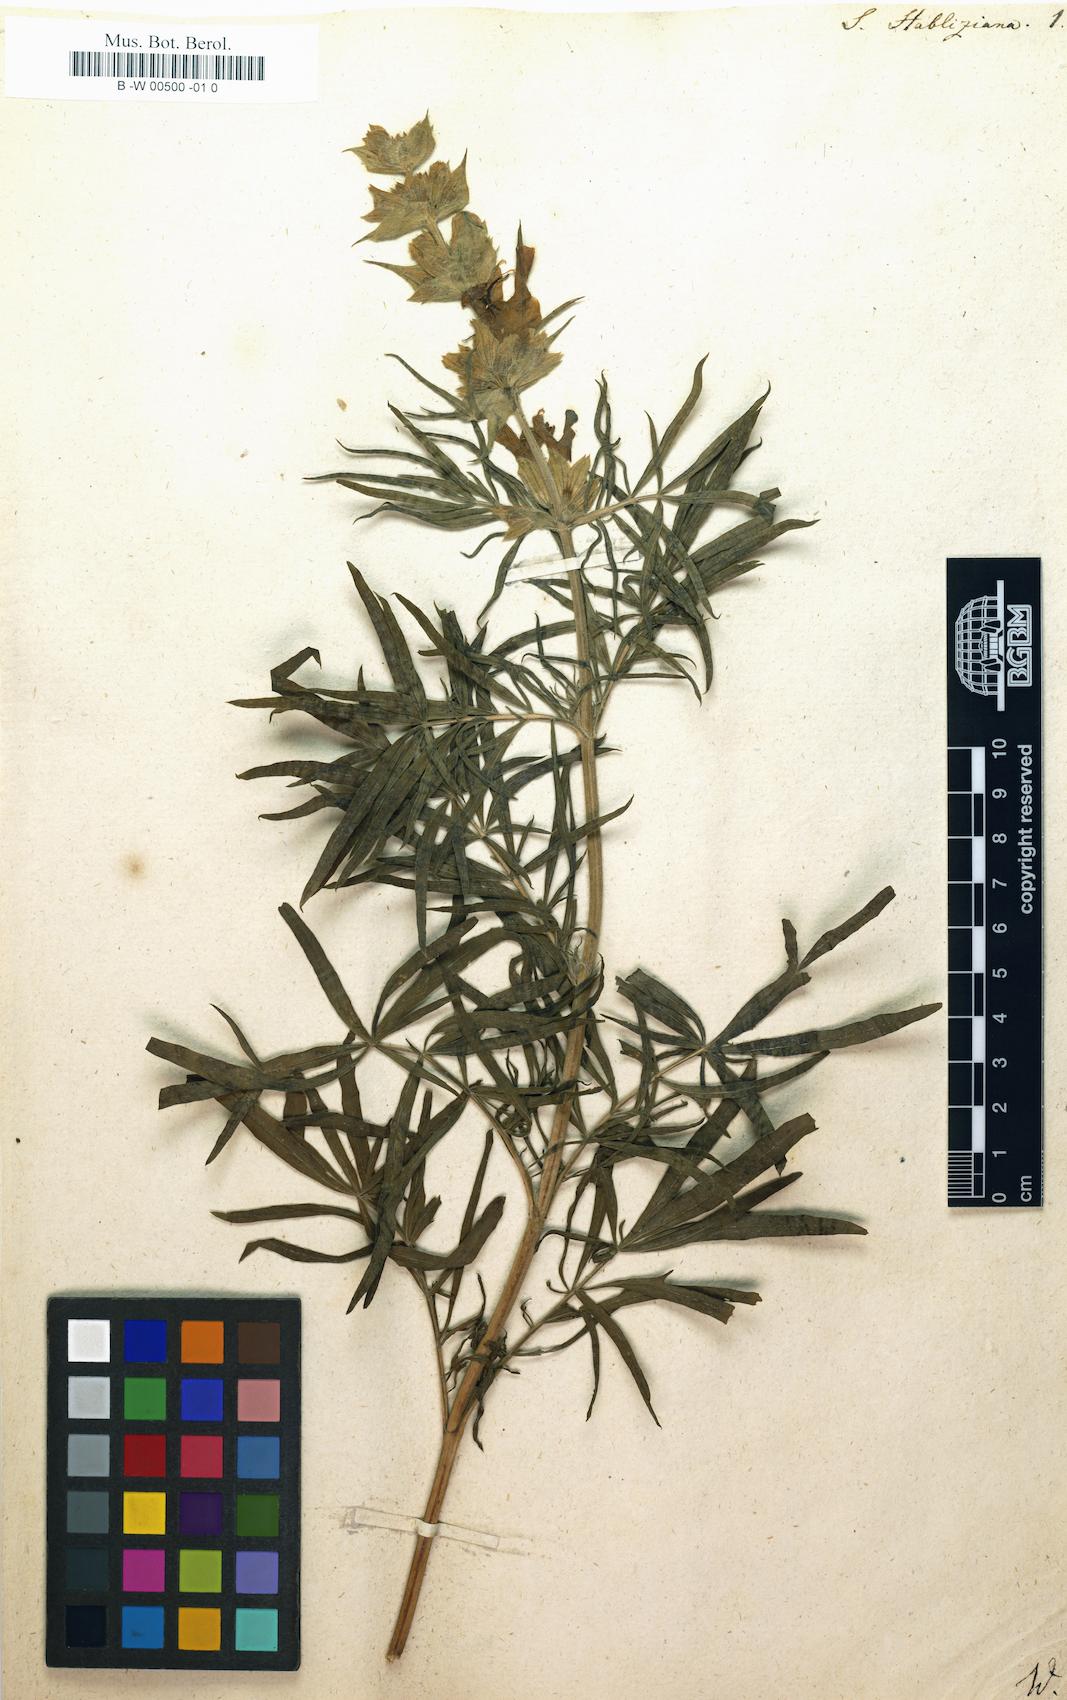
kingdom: Plantae
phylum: Tracheophyta
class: Magnoliopsida
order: Lamiales
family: Lamiaceae
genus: Salvia
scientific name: Salvia scabiosifolia
